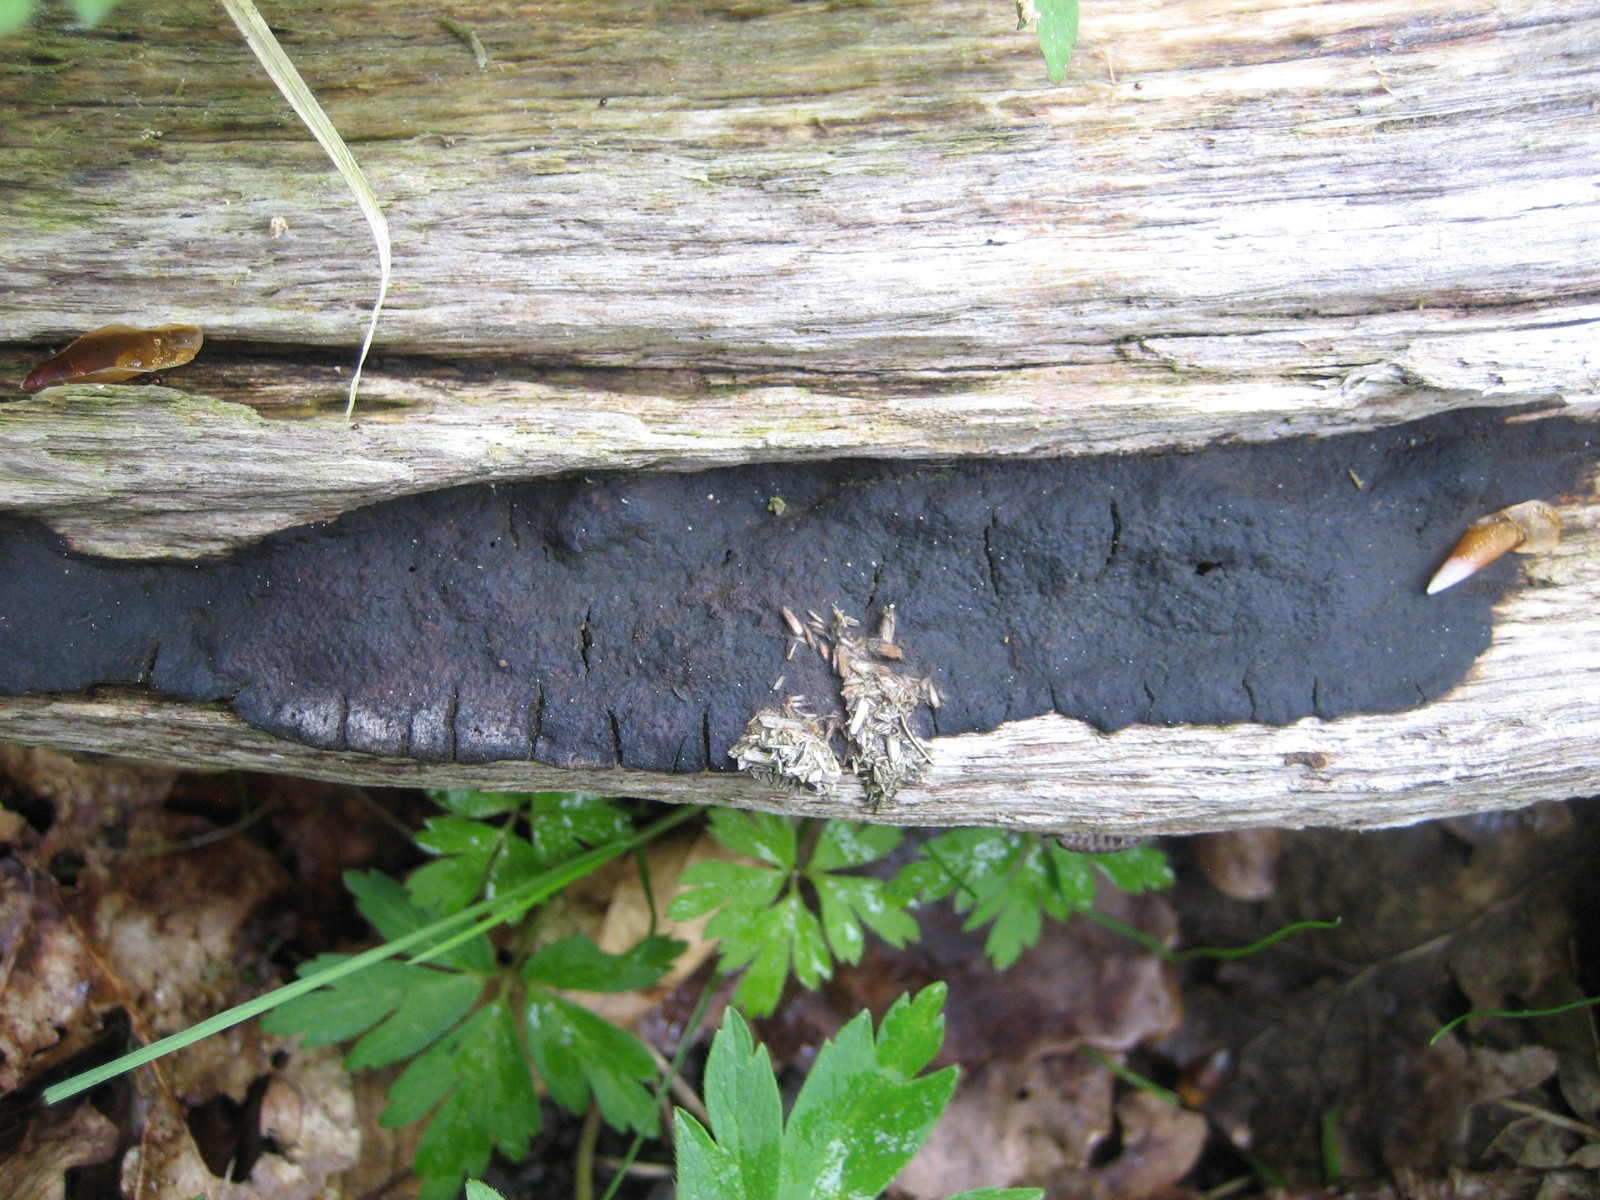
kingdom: Fungi
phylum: Ascomycota
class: Sordariomycetes
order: Xylariales
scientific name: Xylariales
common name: stødsvampordenen
